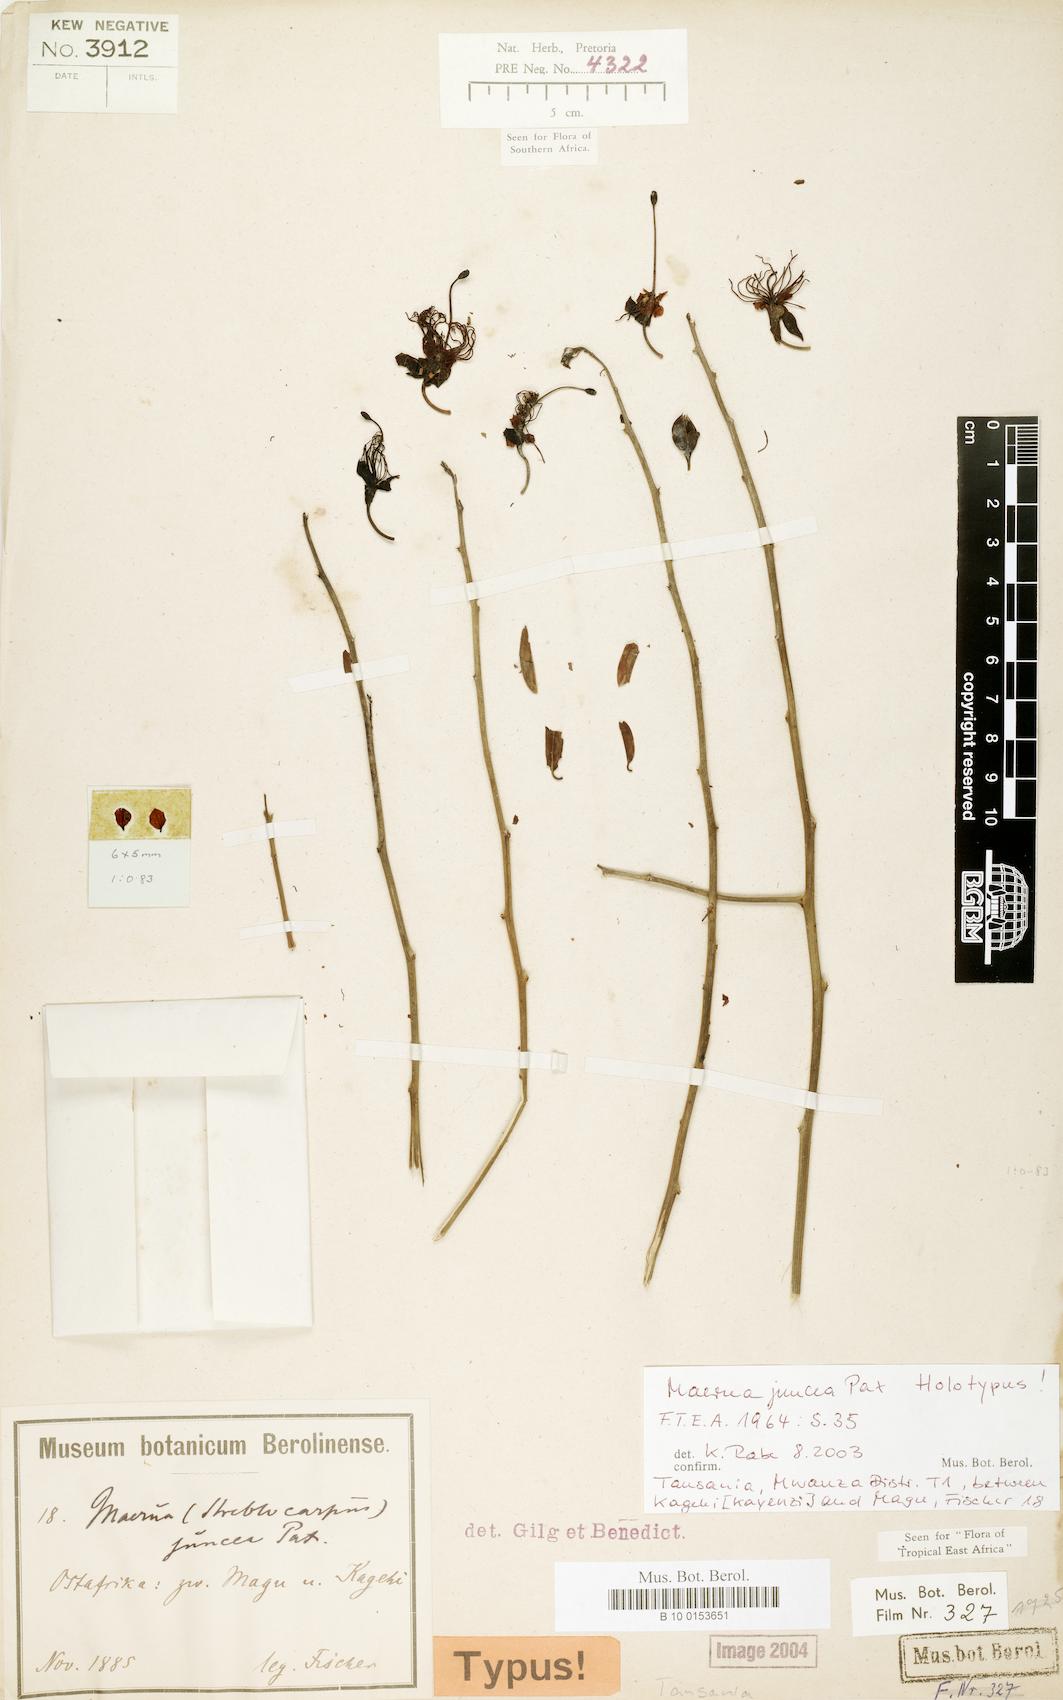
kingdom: Plantae
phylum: Tracheophyta
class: Magnoliopsida
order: Brassicales
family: Capparaceae
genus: Maerua
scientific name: Maerua juncea
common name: Rough-skinned bush cherry
